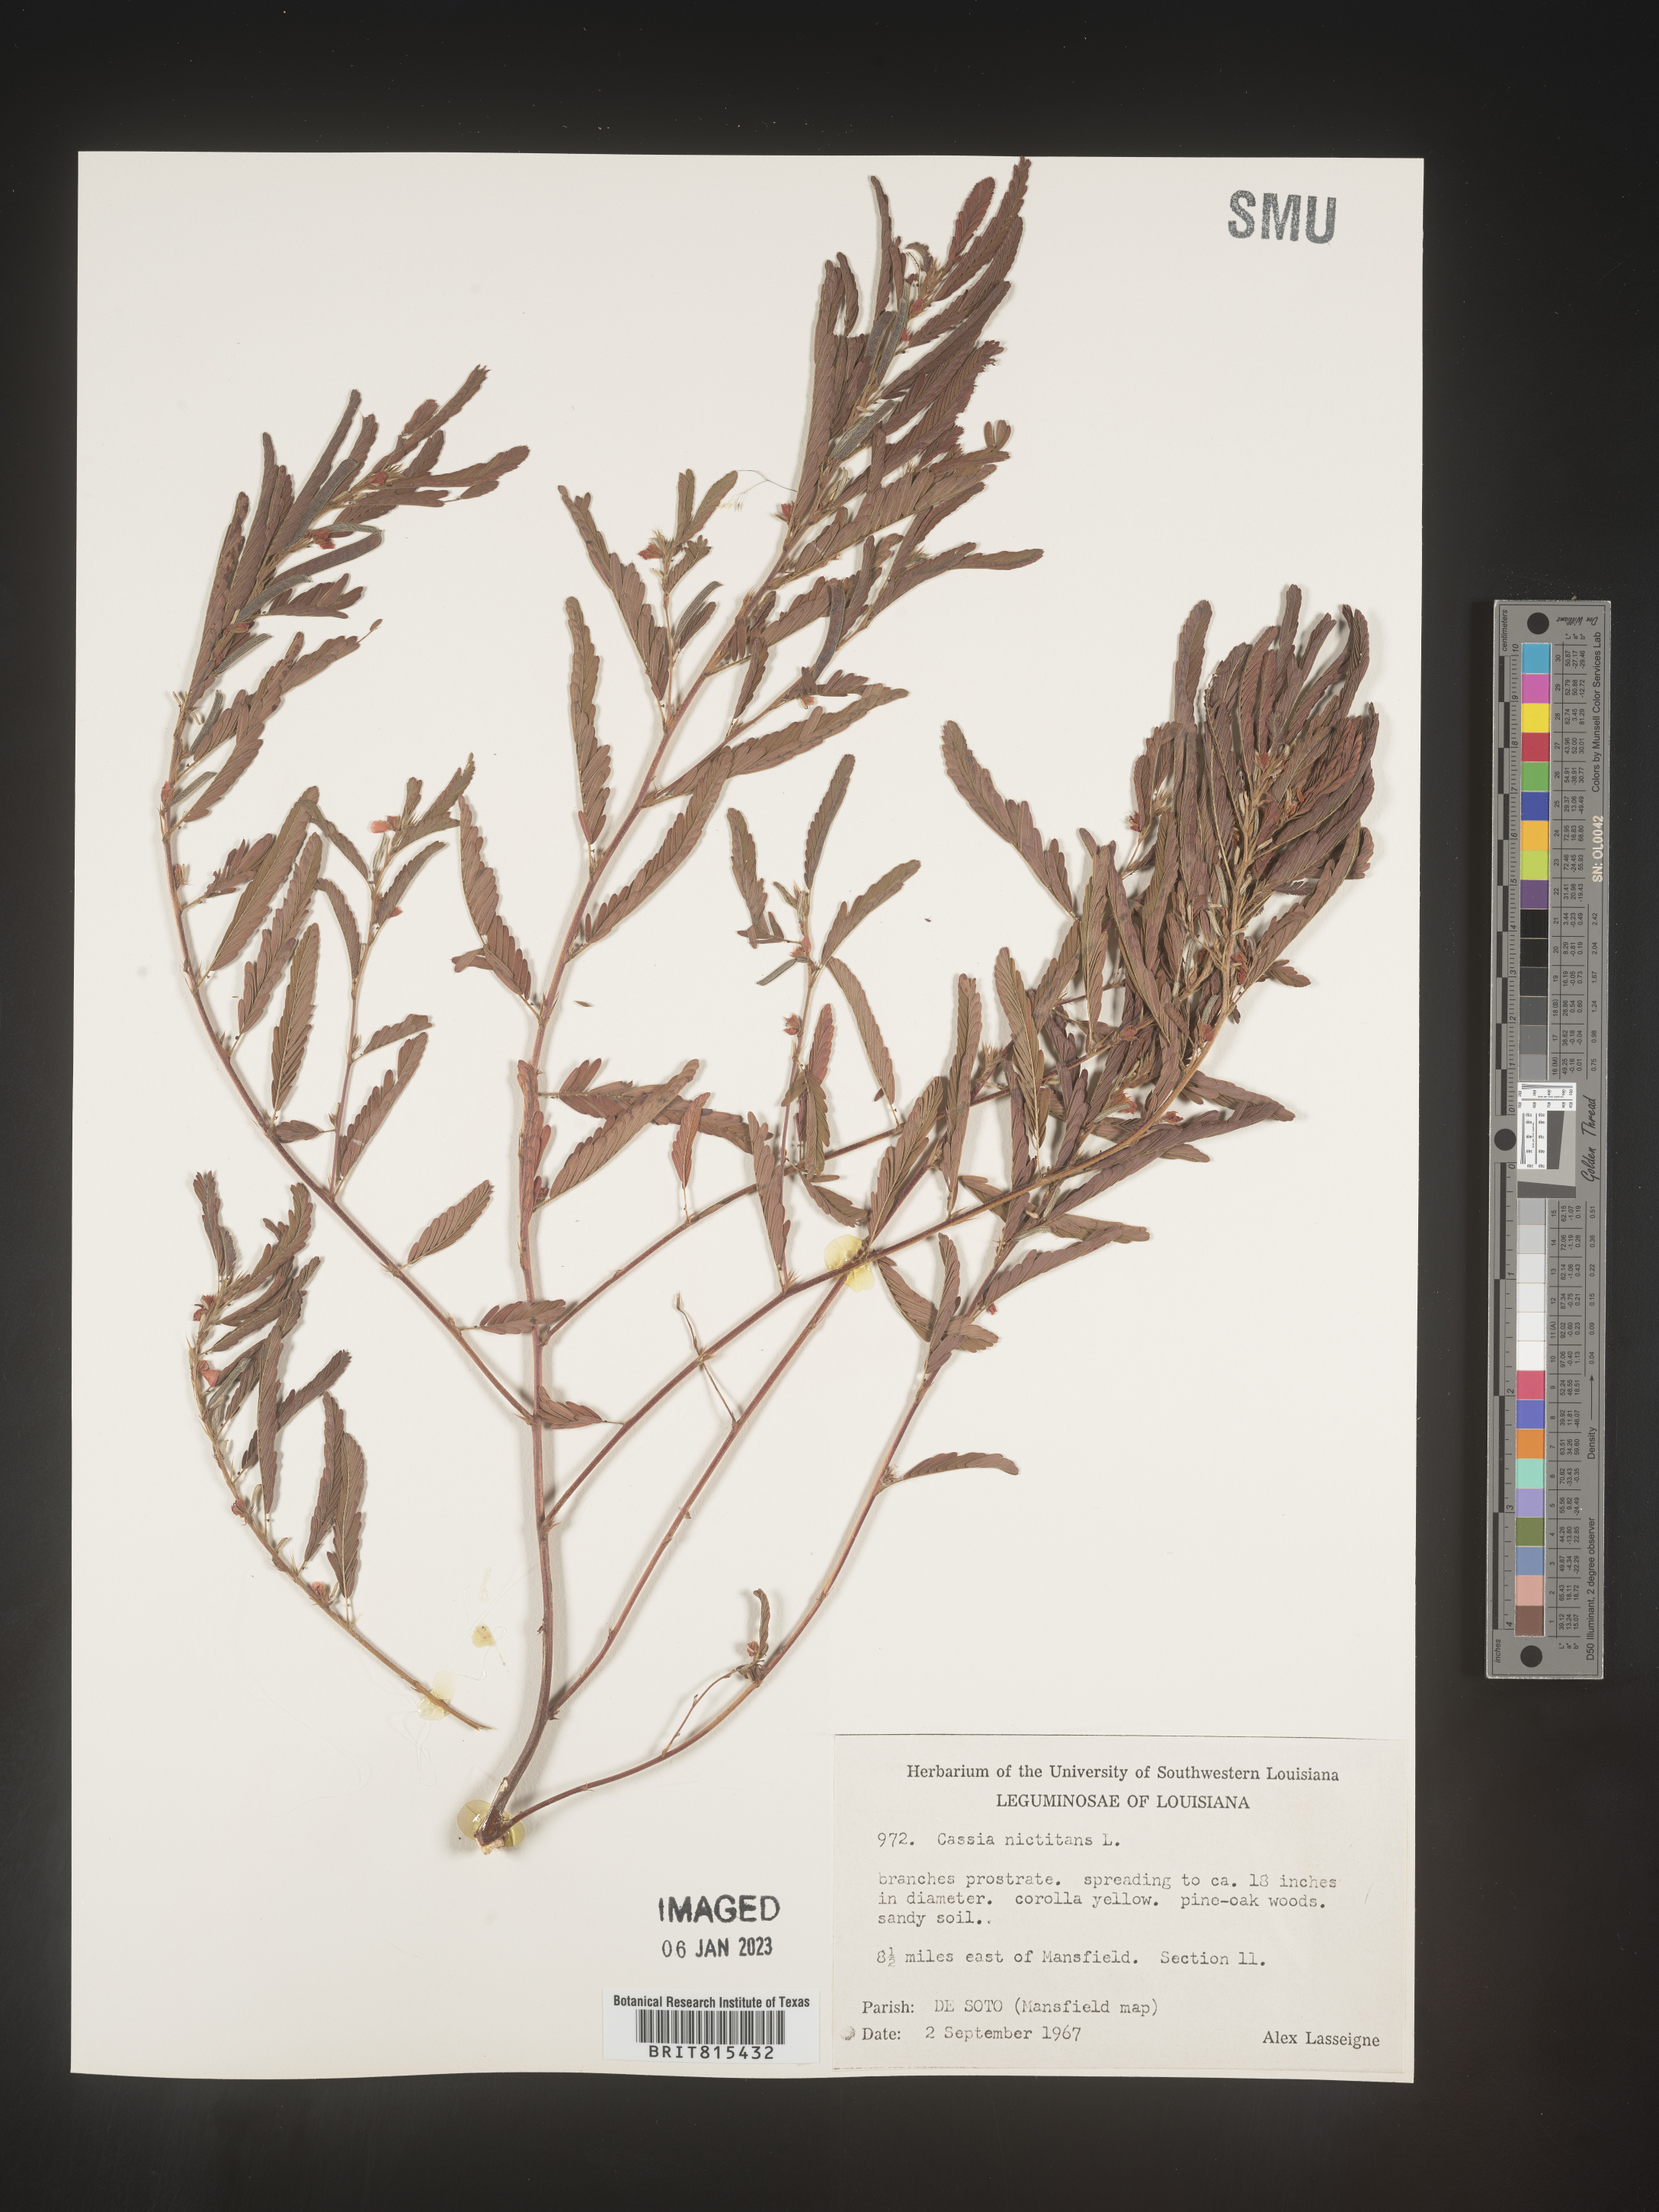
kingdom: Plantae
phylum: Tracheophyta
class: Magnoliopsida
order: Fabales
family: Fabaceae
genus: Chamaecrista
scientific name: Chamaecrista nictitans
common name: Sensitive cassia
